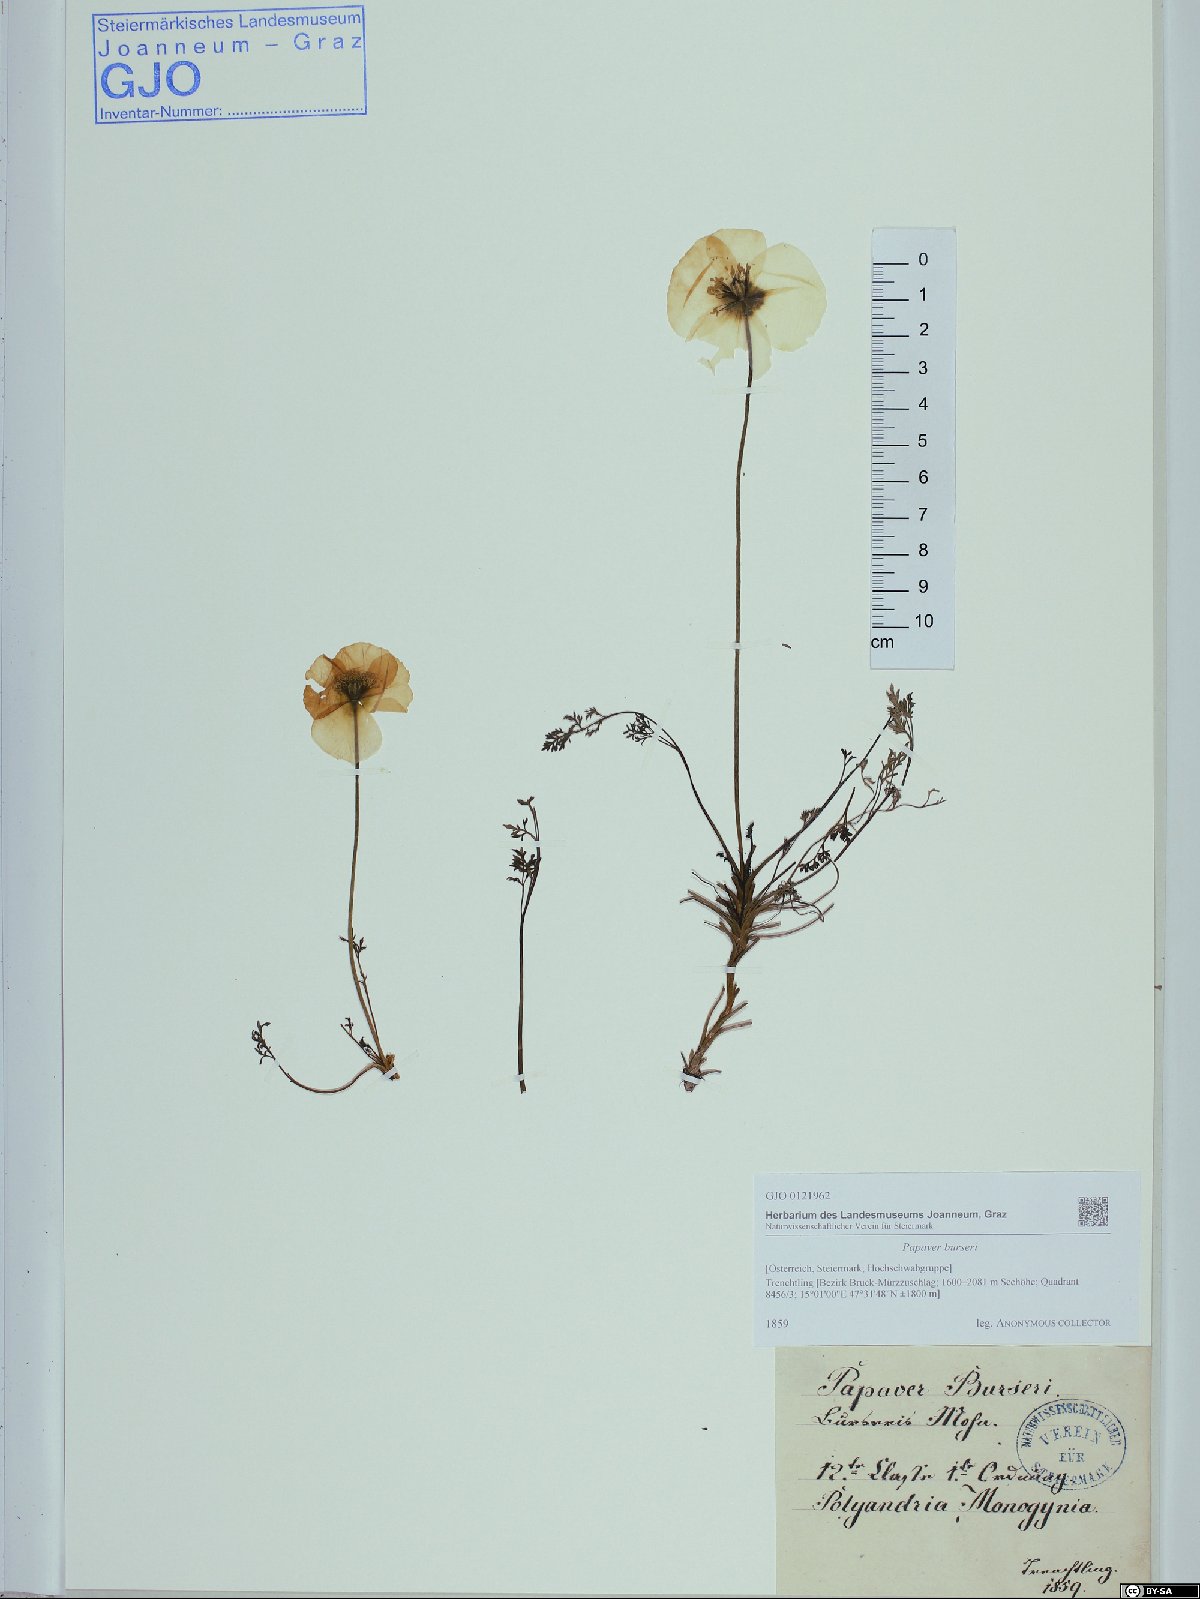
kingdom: Plantae
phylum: Tracheophyta
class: Magnoliopsida
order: Ranunculales
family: Papaveraceae
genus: Papaver
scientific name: Papaver alpinum
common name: Austrian poppy
